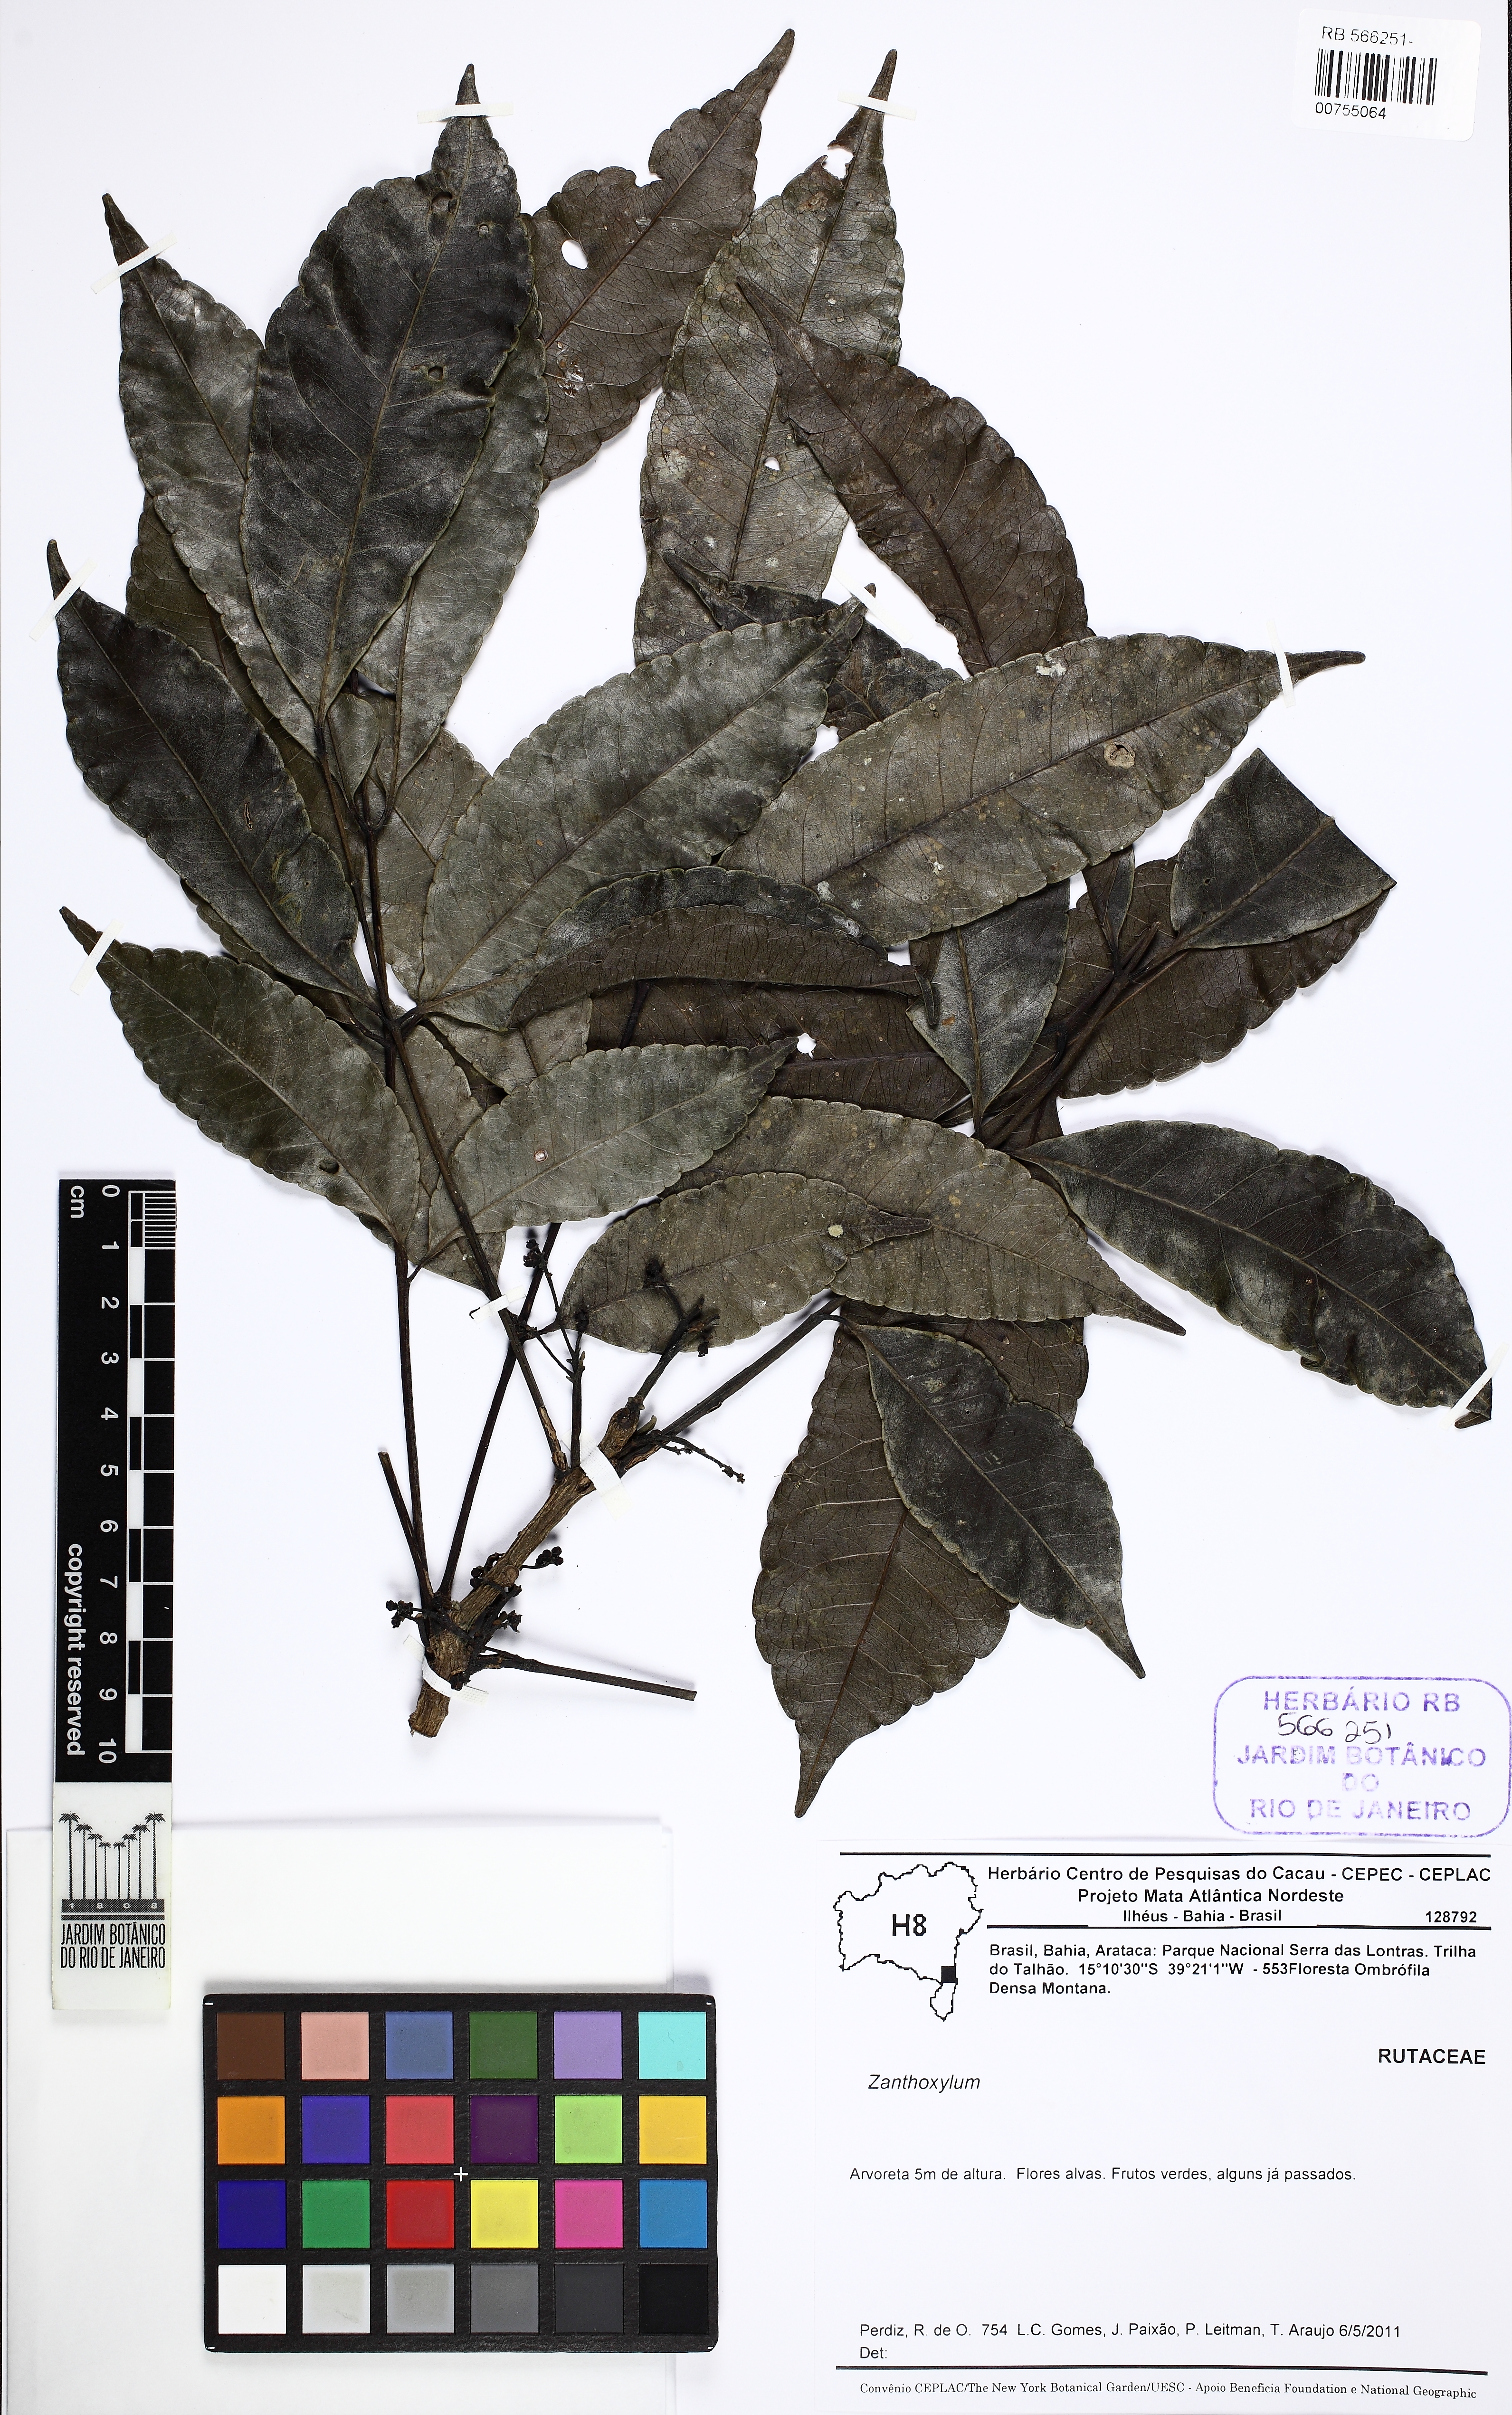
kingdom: Plantae
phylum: Tracheophyta
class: Magnoliopsida
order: Sapindales
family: Rutaceae
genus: Zanthoxylum
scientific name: Zanthoxylum nemorale
